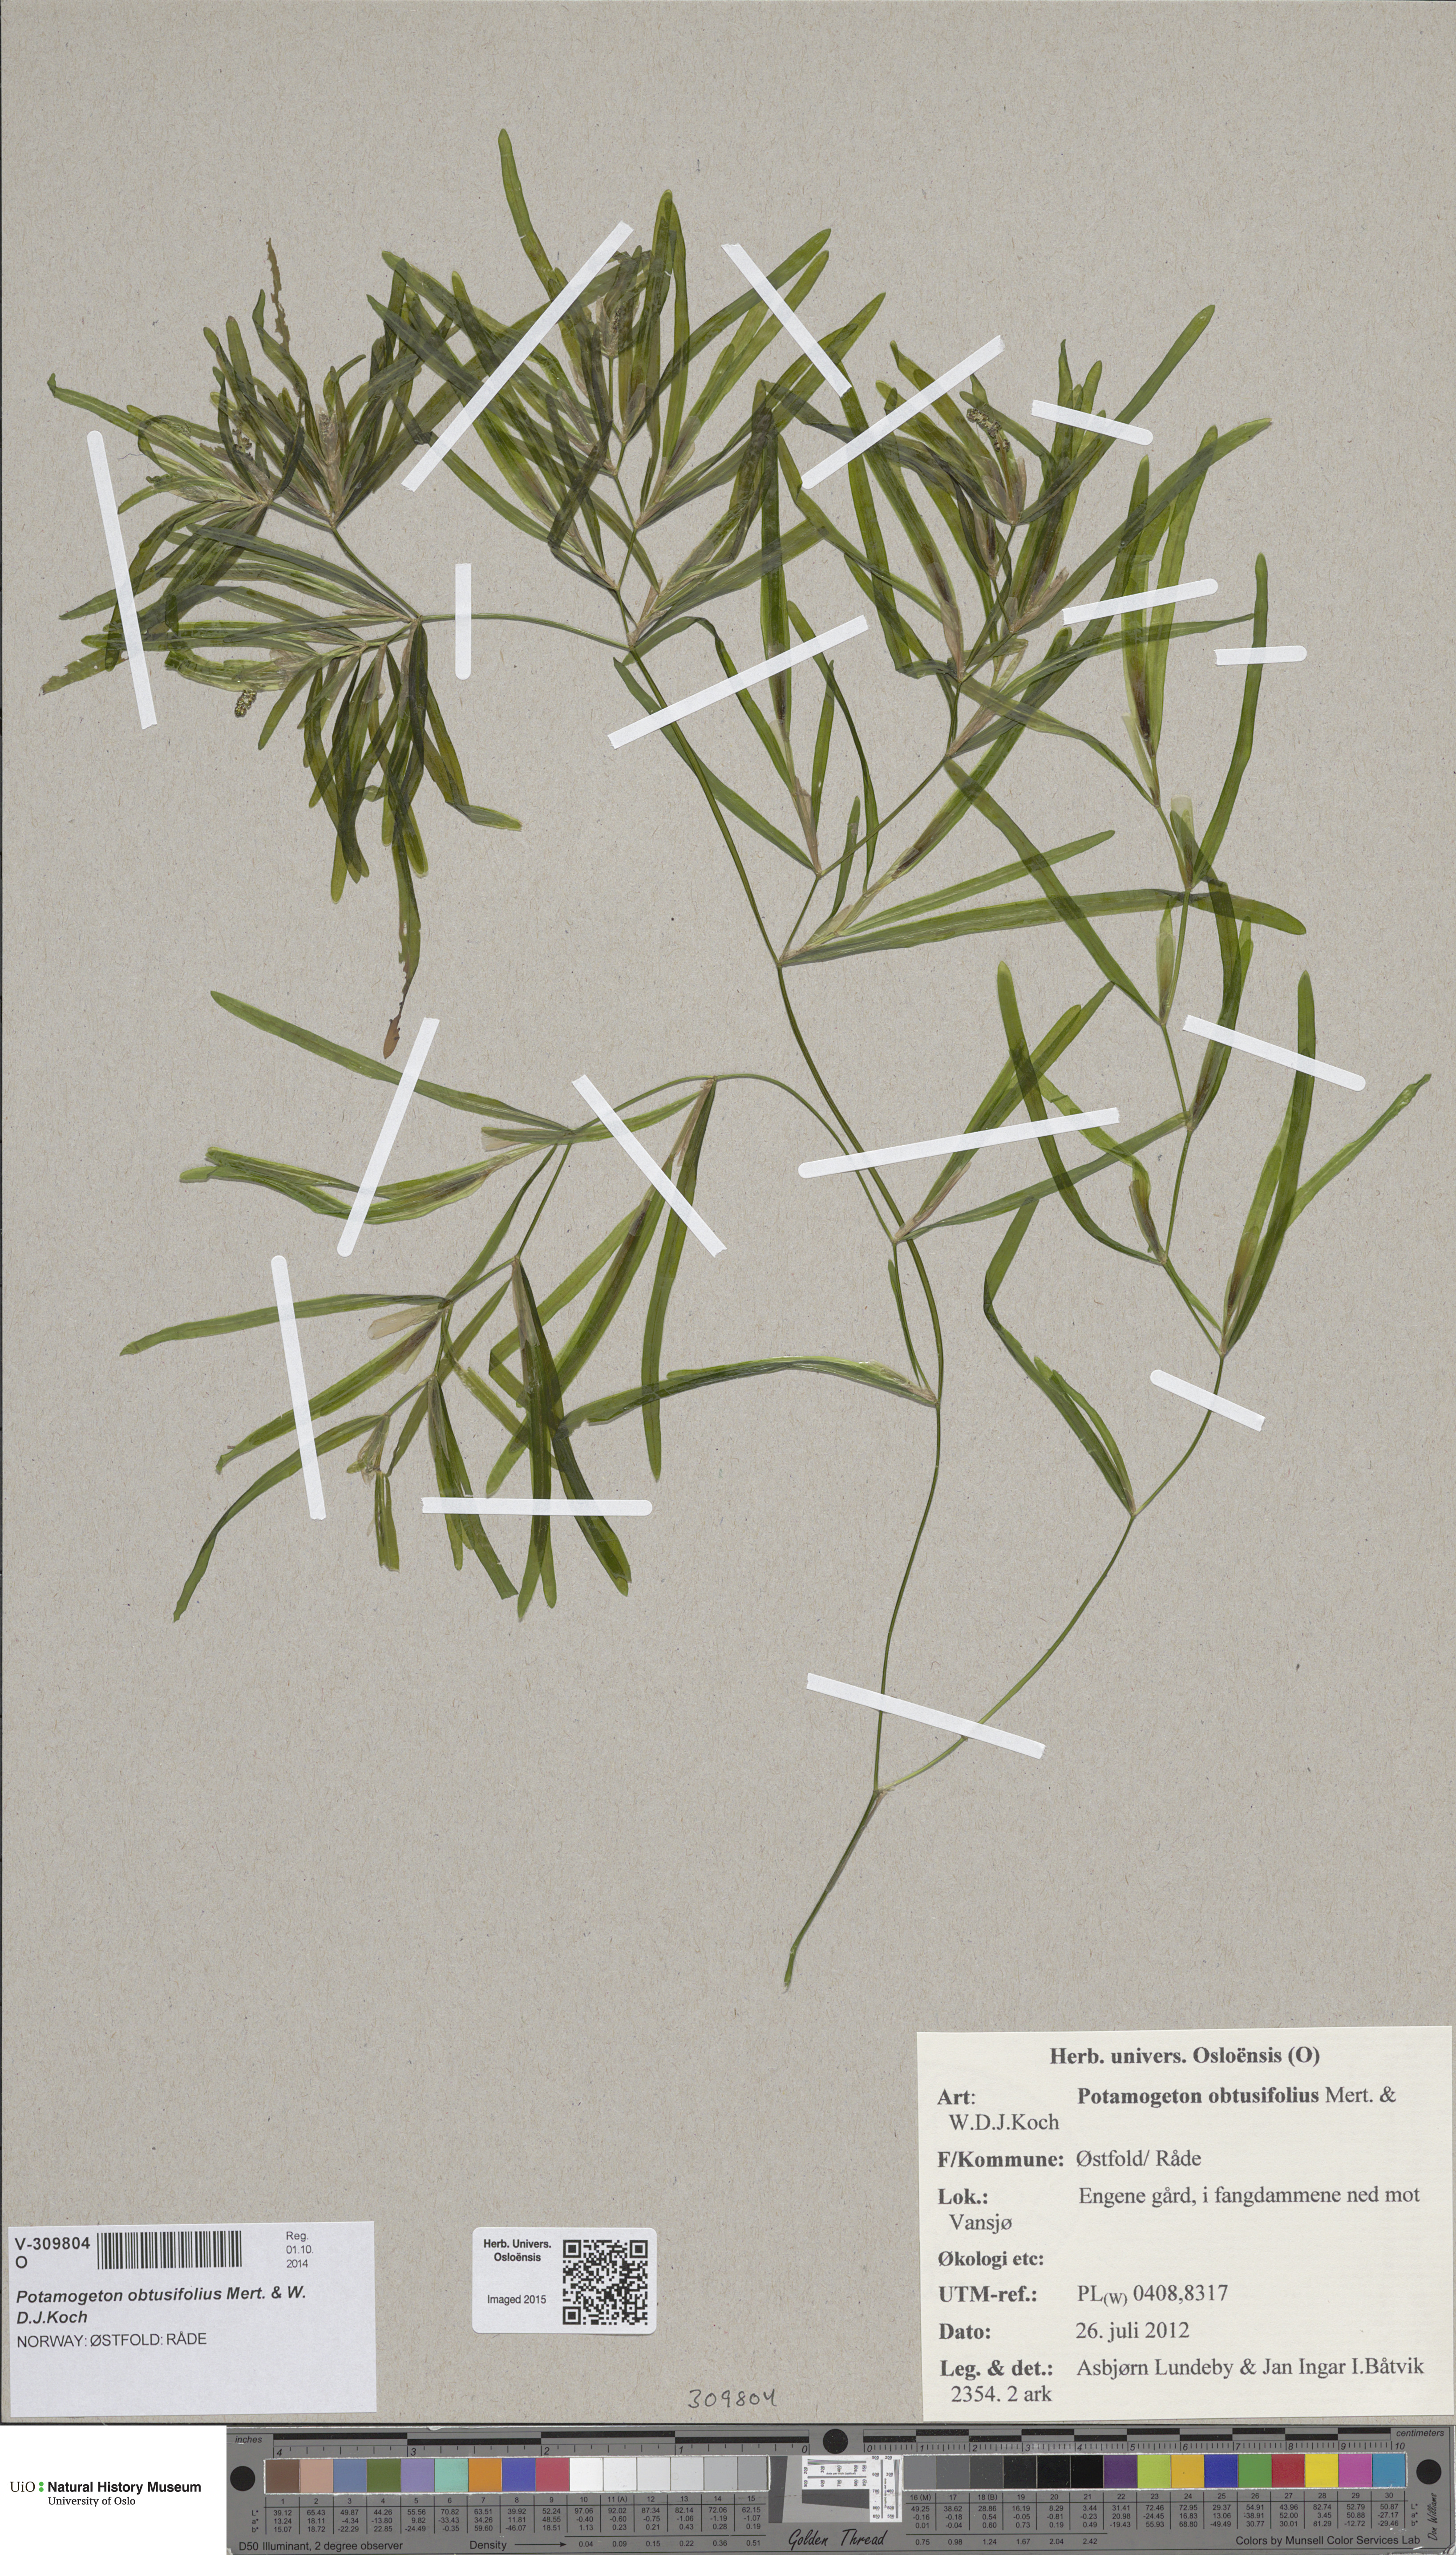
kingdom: Plantae
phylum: Tracheophyta
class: Liliopsida
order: Alismatales
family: Potamogetonaceae
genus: Potamogeton
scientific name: Potamogeton obtusifolius
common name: Blunt-leaved pondweed
